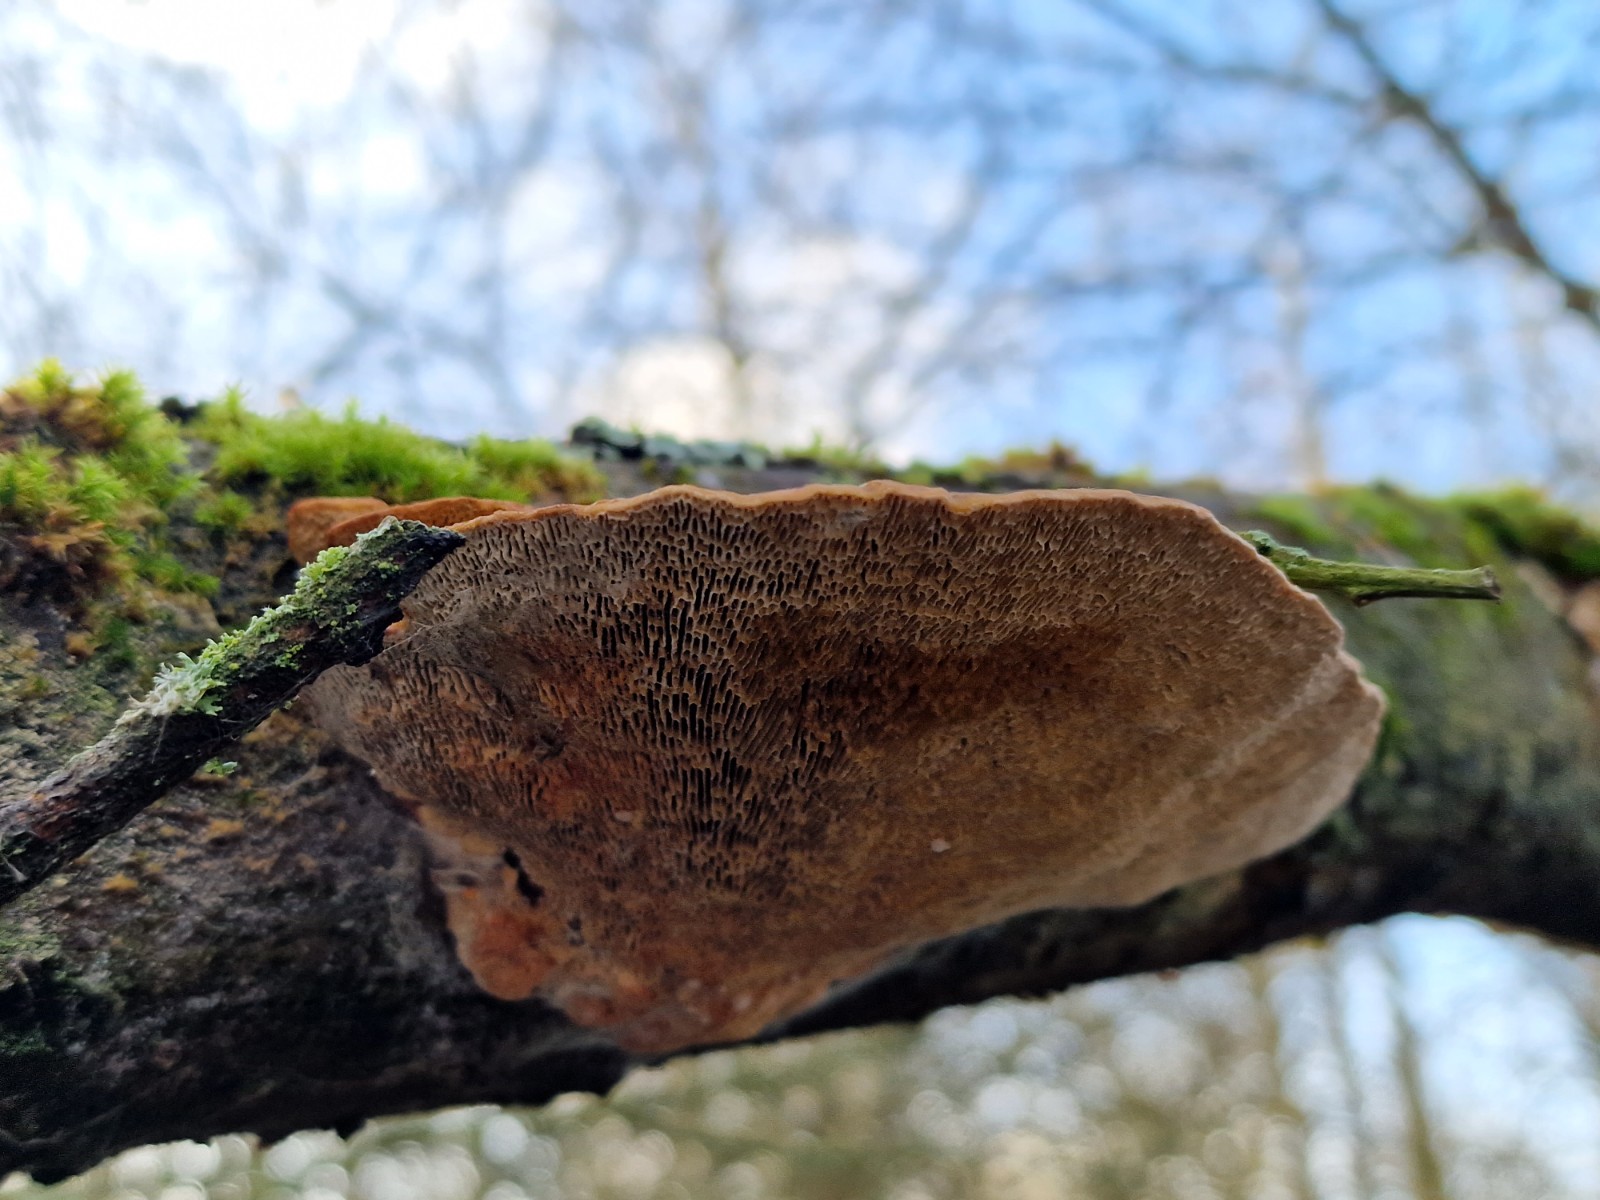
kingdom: Fungi
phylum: Basidiomycota
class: Agaricomycetes
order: Polyporales
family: Polyporaceae
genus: Daedaleopsis
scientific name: Daedaleopsis confragosa
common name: rødmende læderporesvamp
